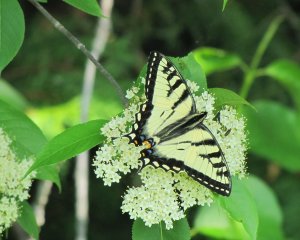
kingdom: Animalia
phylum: Arthropoda
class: Insecta
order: Lepidoptera
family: Papilionidae
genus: Pterourus
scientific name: Pterourus canadensis
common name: Canadian Tiger Swallowtail
